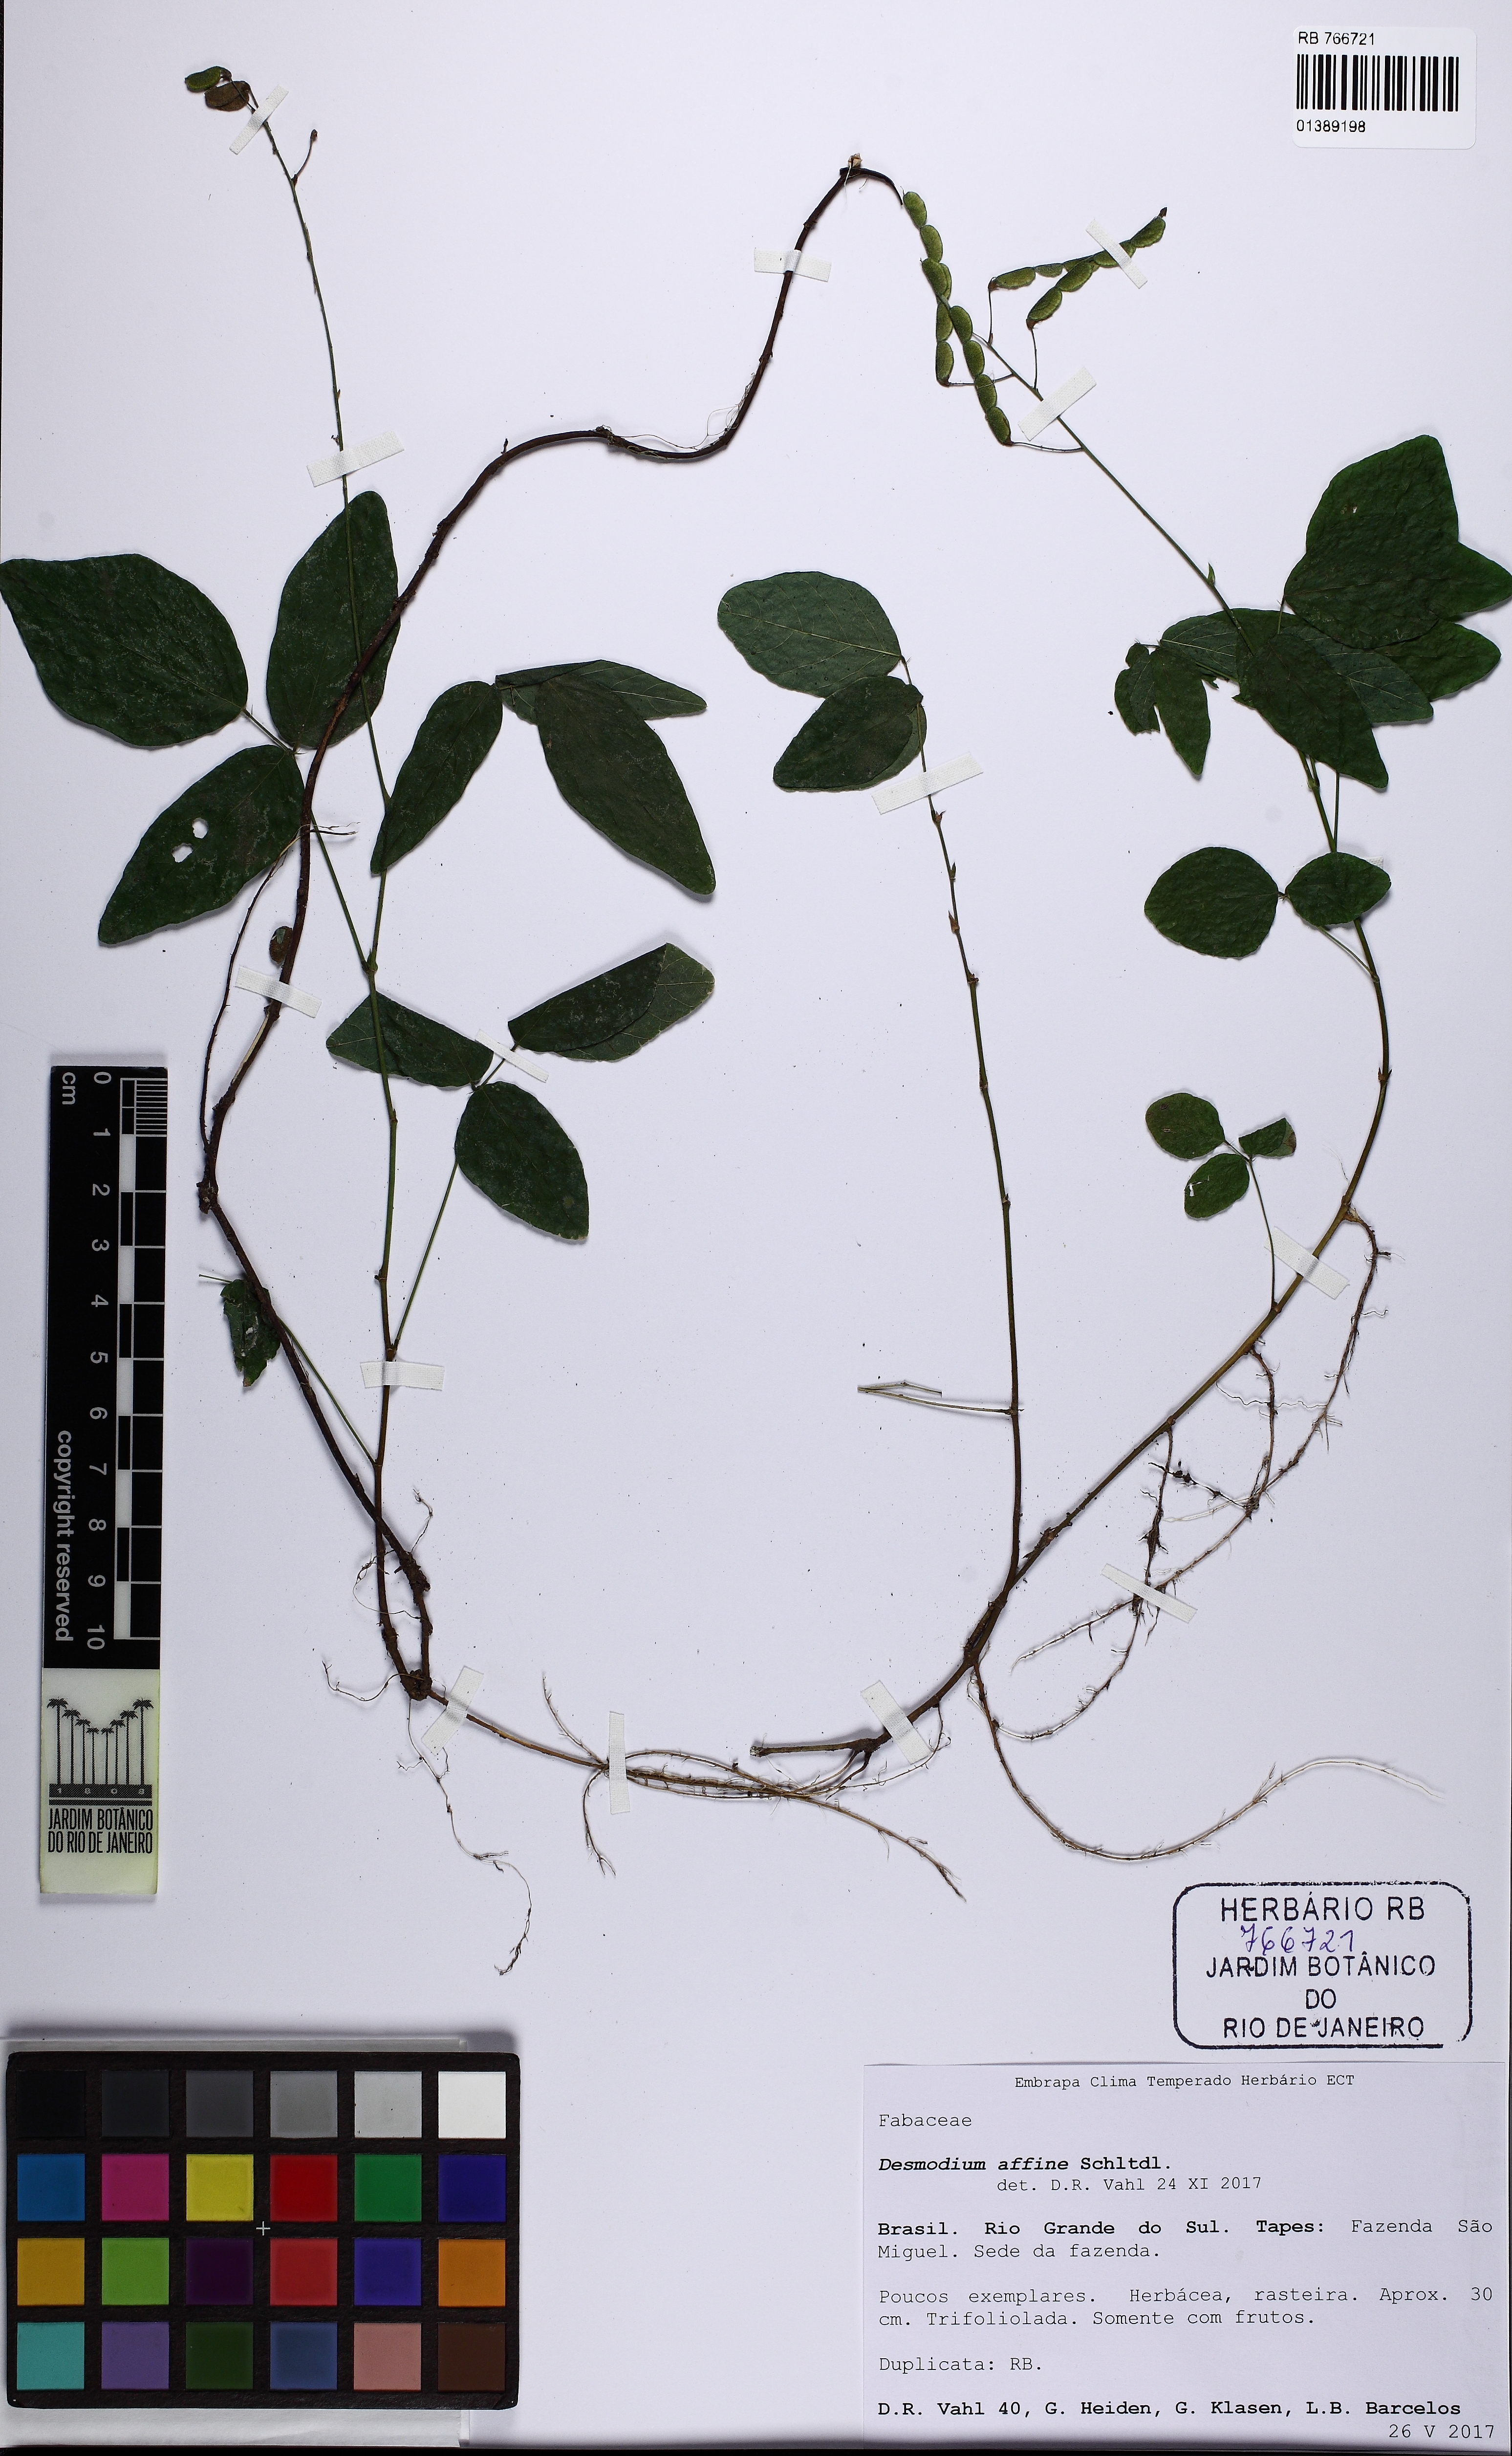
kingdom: Plantae
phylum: Tracheophyta
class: Magnoliopsida
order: Fabales
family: Fabaceae
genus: Desmodium
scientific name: Desmodium affine
